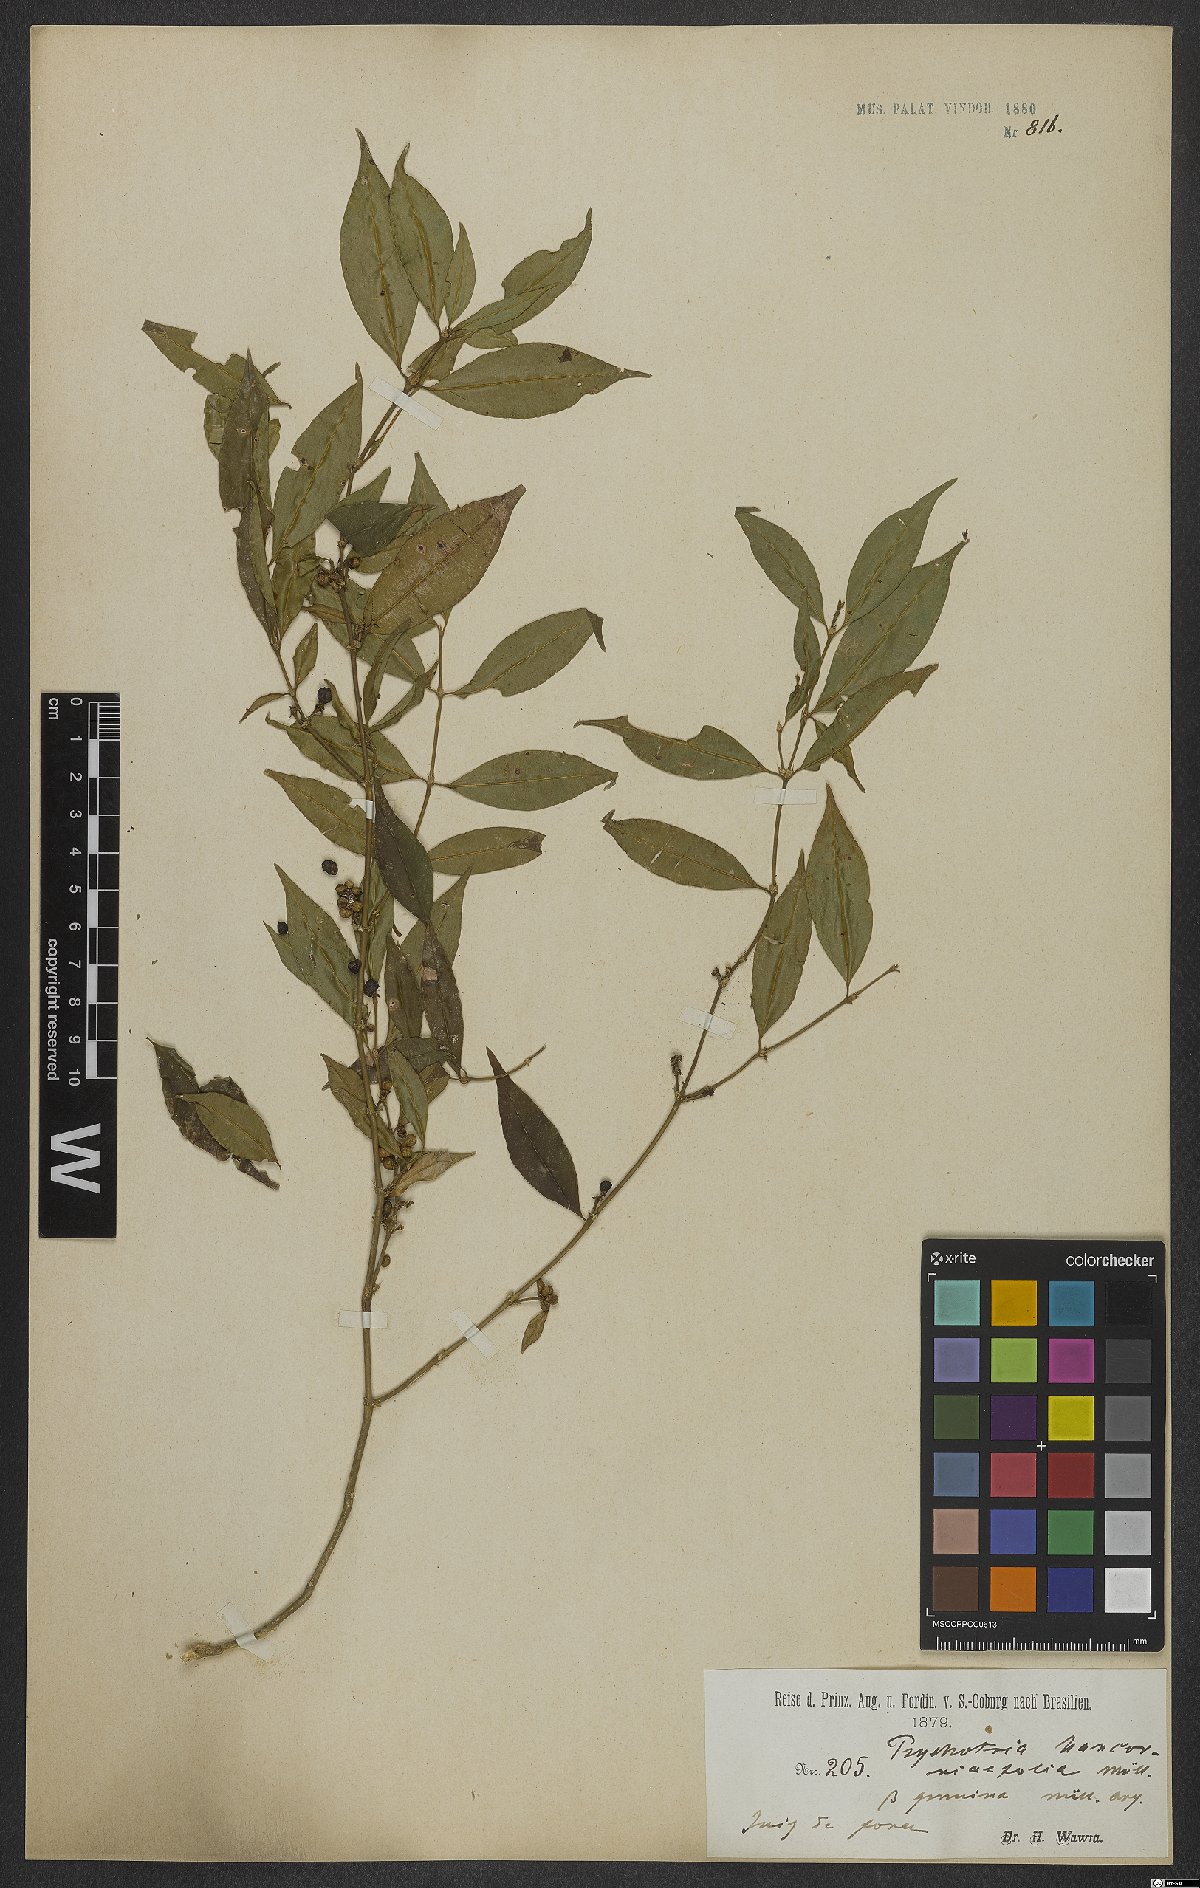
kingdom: Plantae
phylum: Tracheophyta
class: Magnoliopsida
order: Gentianales
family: Rubiaceae
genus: Palicourea
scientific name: Palicourea sessilis
